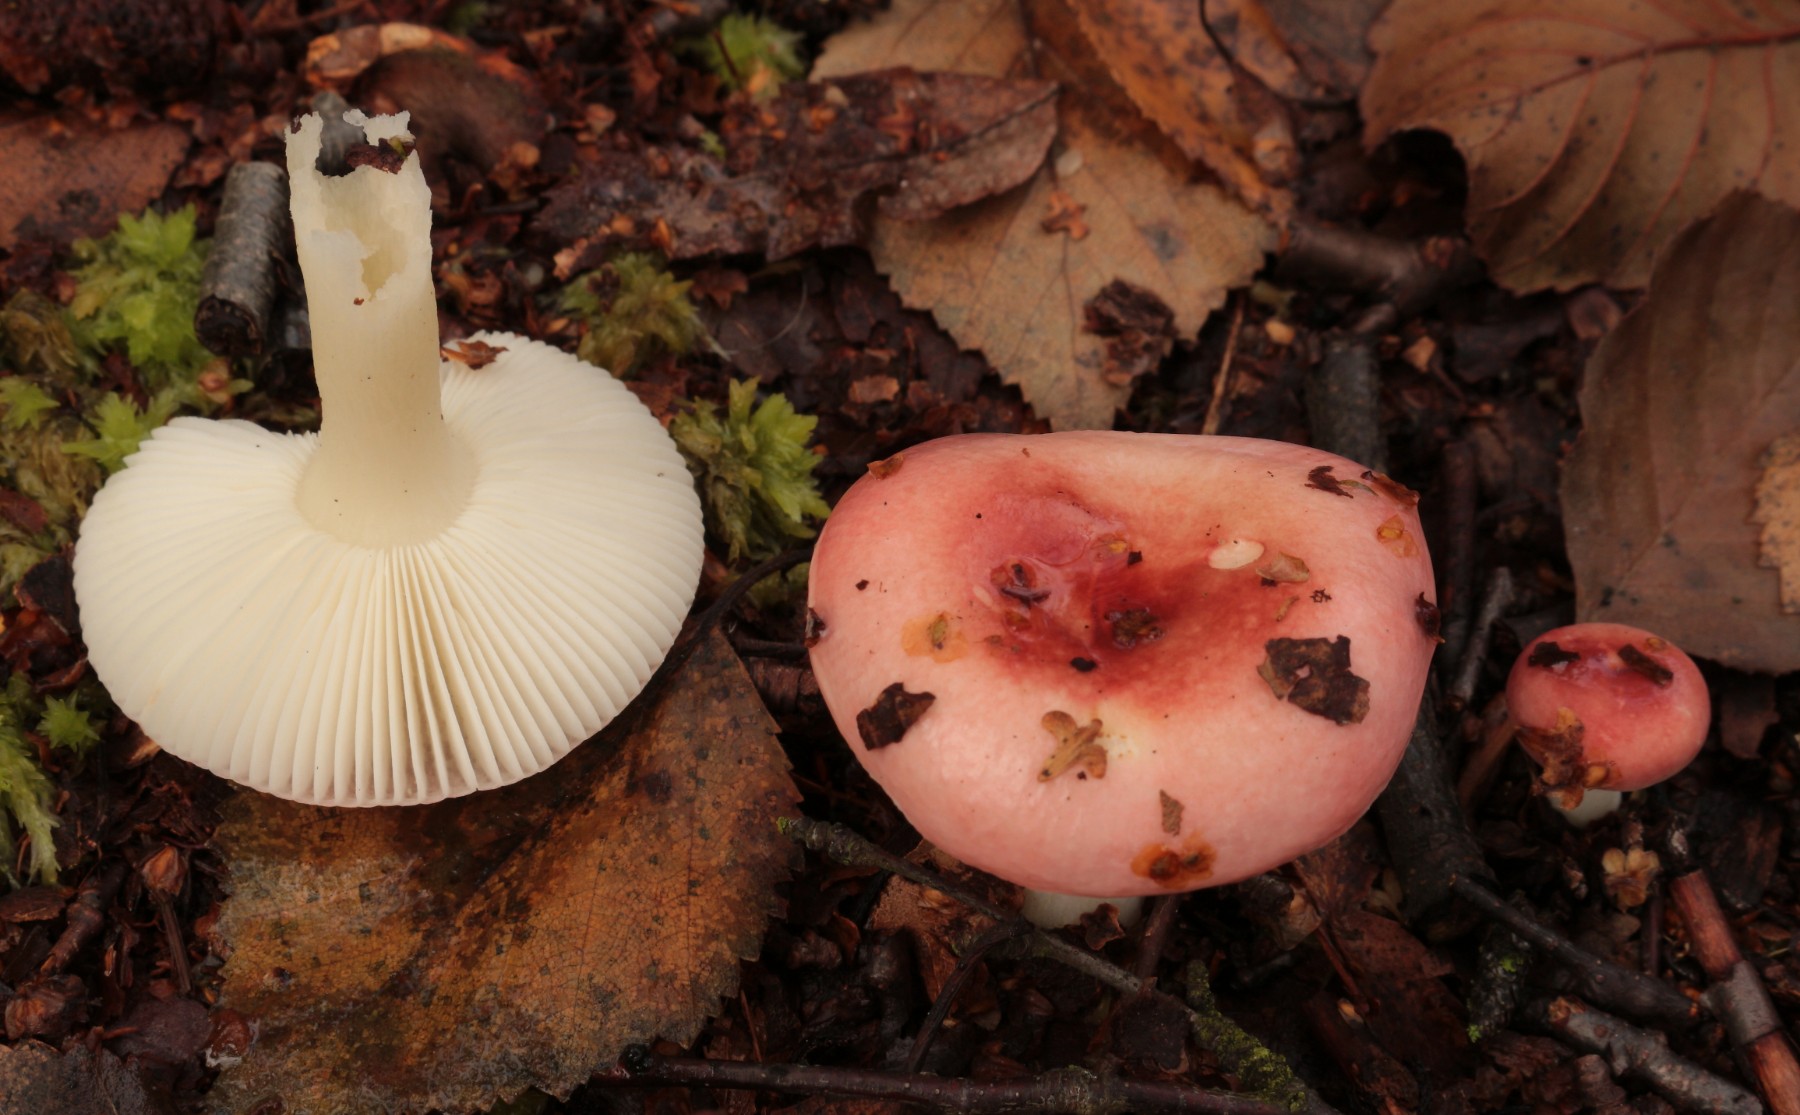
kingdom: Fungi
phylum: Basidiomycota
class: Agaricomycetes
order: Russulales
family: Russulaceae
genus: Russula
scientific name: Russula
